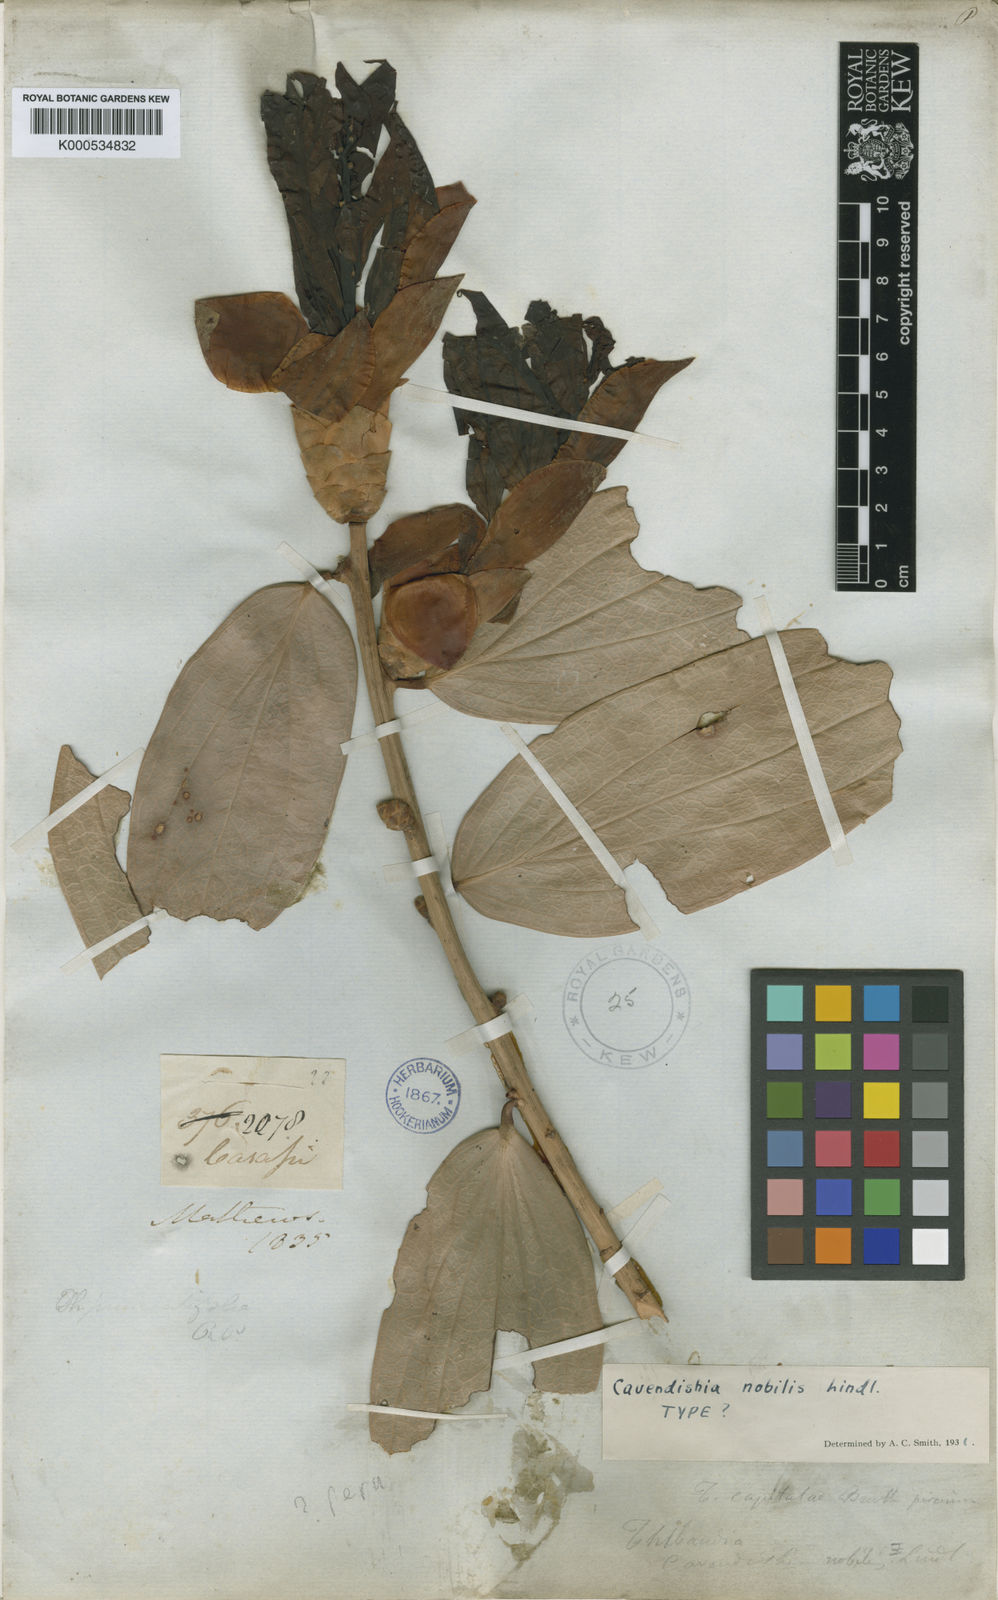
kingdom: Plantae
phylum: Tracheophyta
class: Magnoliopsida
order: Ericales
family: Ericaceae
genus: Cavendishia
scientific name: Cavendishia nobilis
